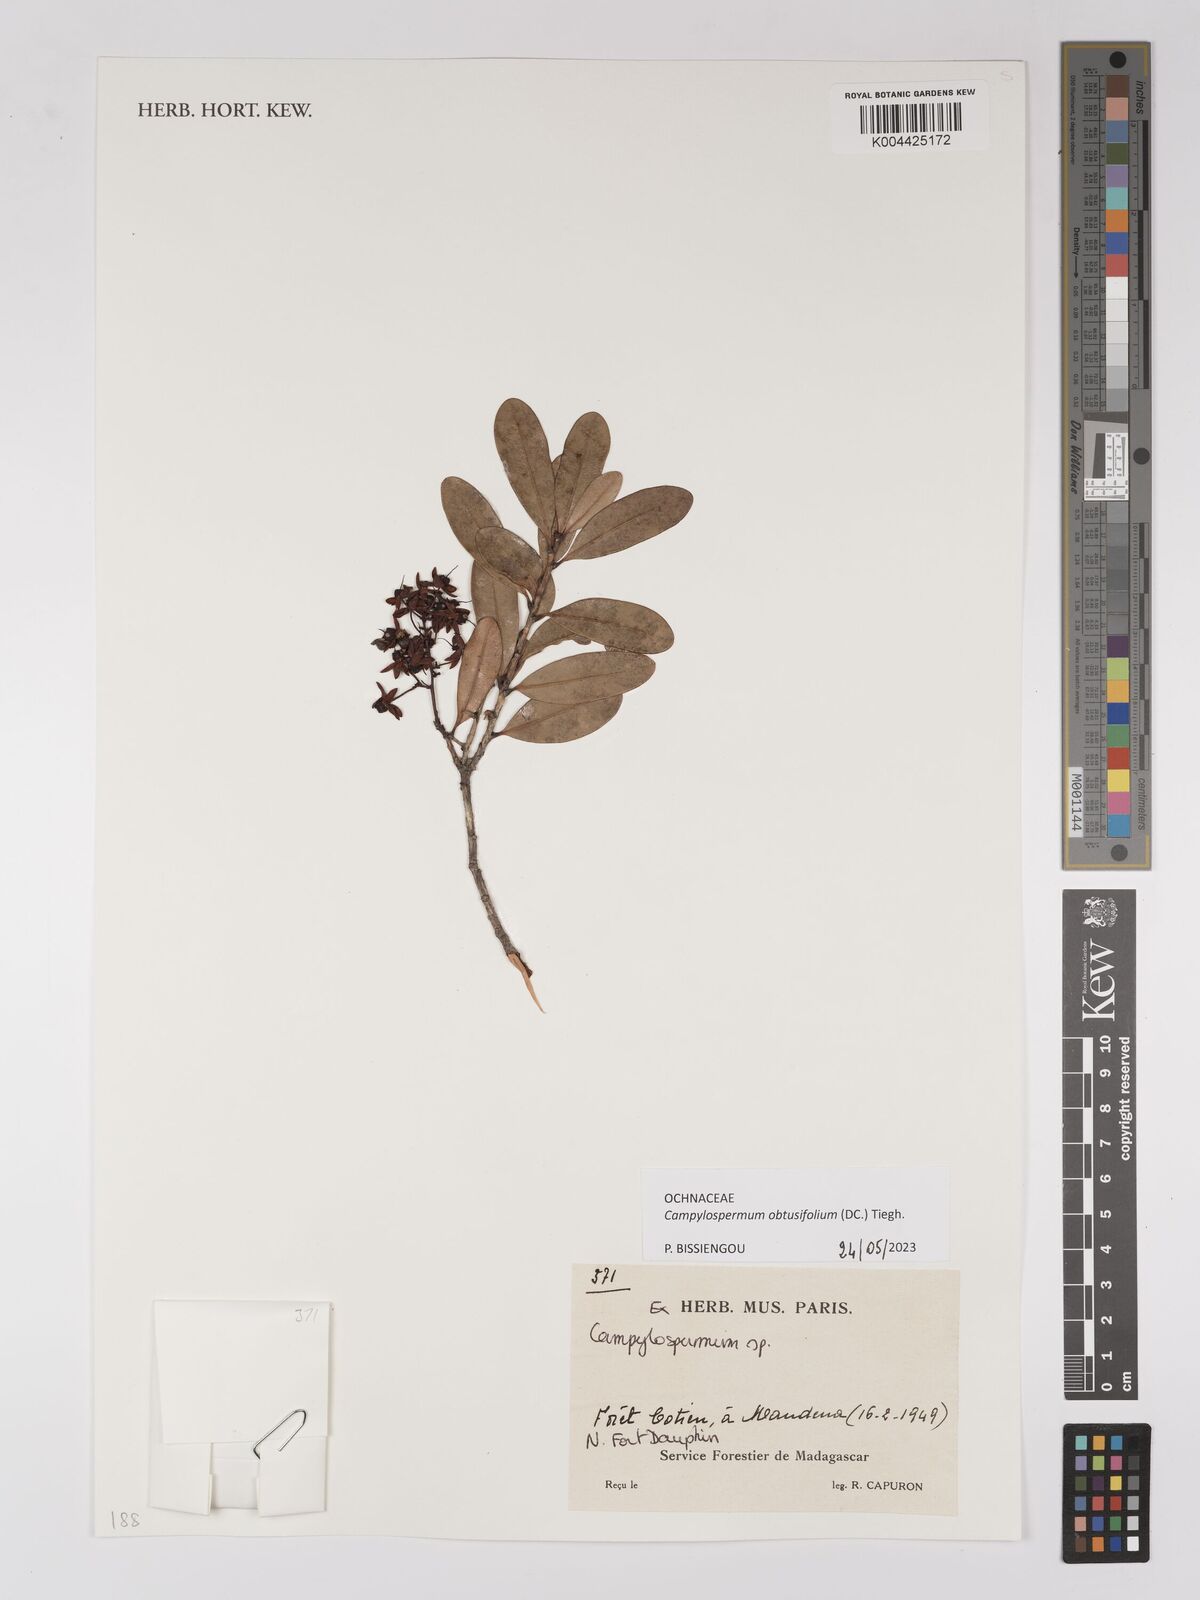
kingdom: Plantae
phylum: Tracheophyta
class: Magnoliopsida
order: Malpighiales
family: Ochnaceae
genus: Campylospermum
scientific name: Campylospermum
